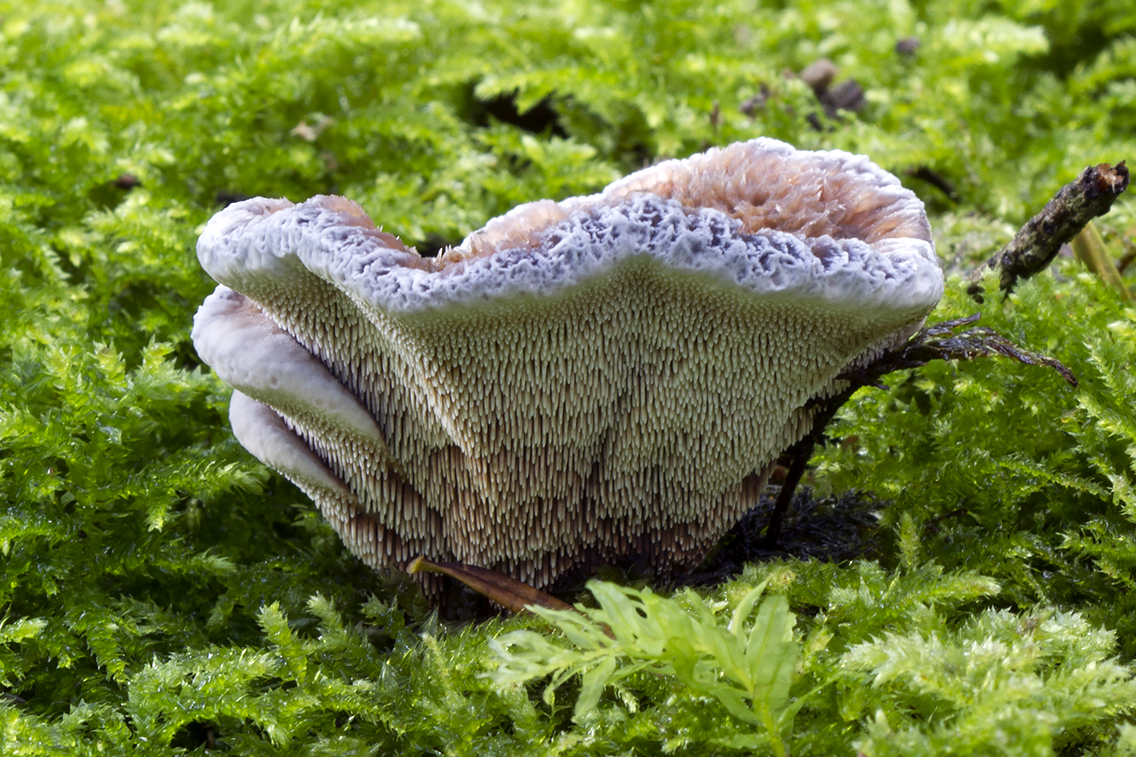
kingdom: Fungi
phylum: Basidiomycota
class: Agaricomycetes
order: Thelephorales
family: Bankeraceae
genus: Hydnellum
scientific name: Hydnellum caeruleum
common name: blålig korkpigsvamp
